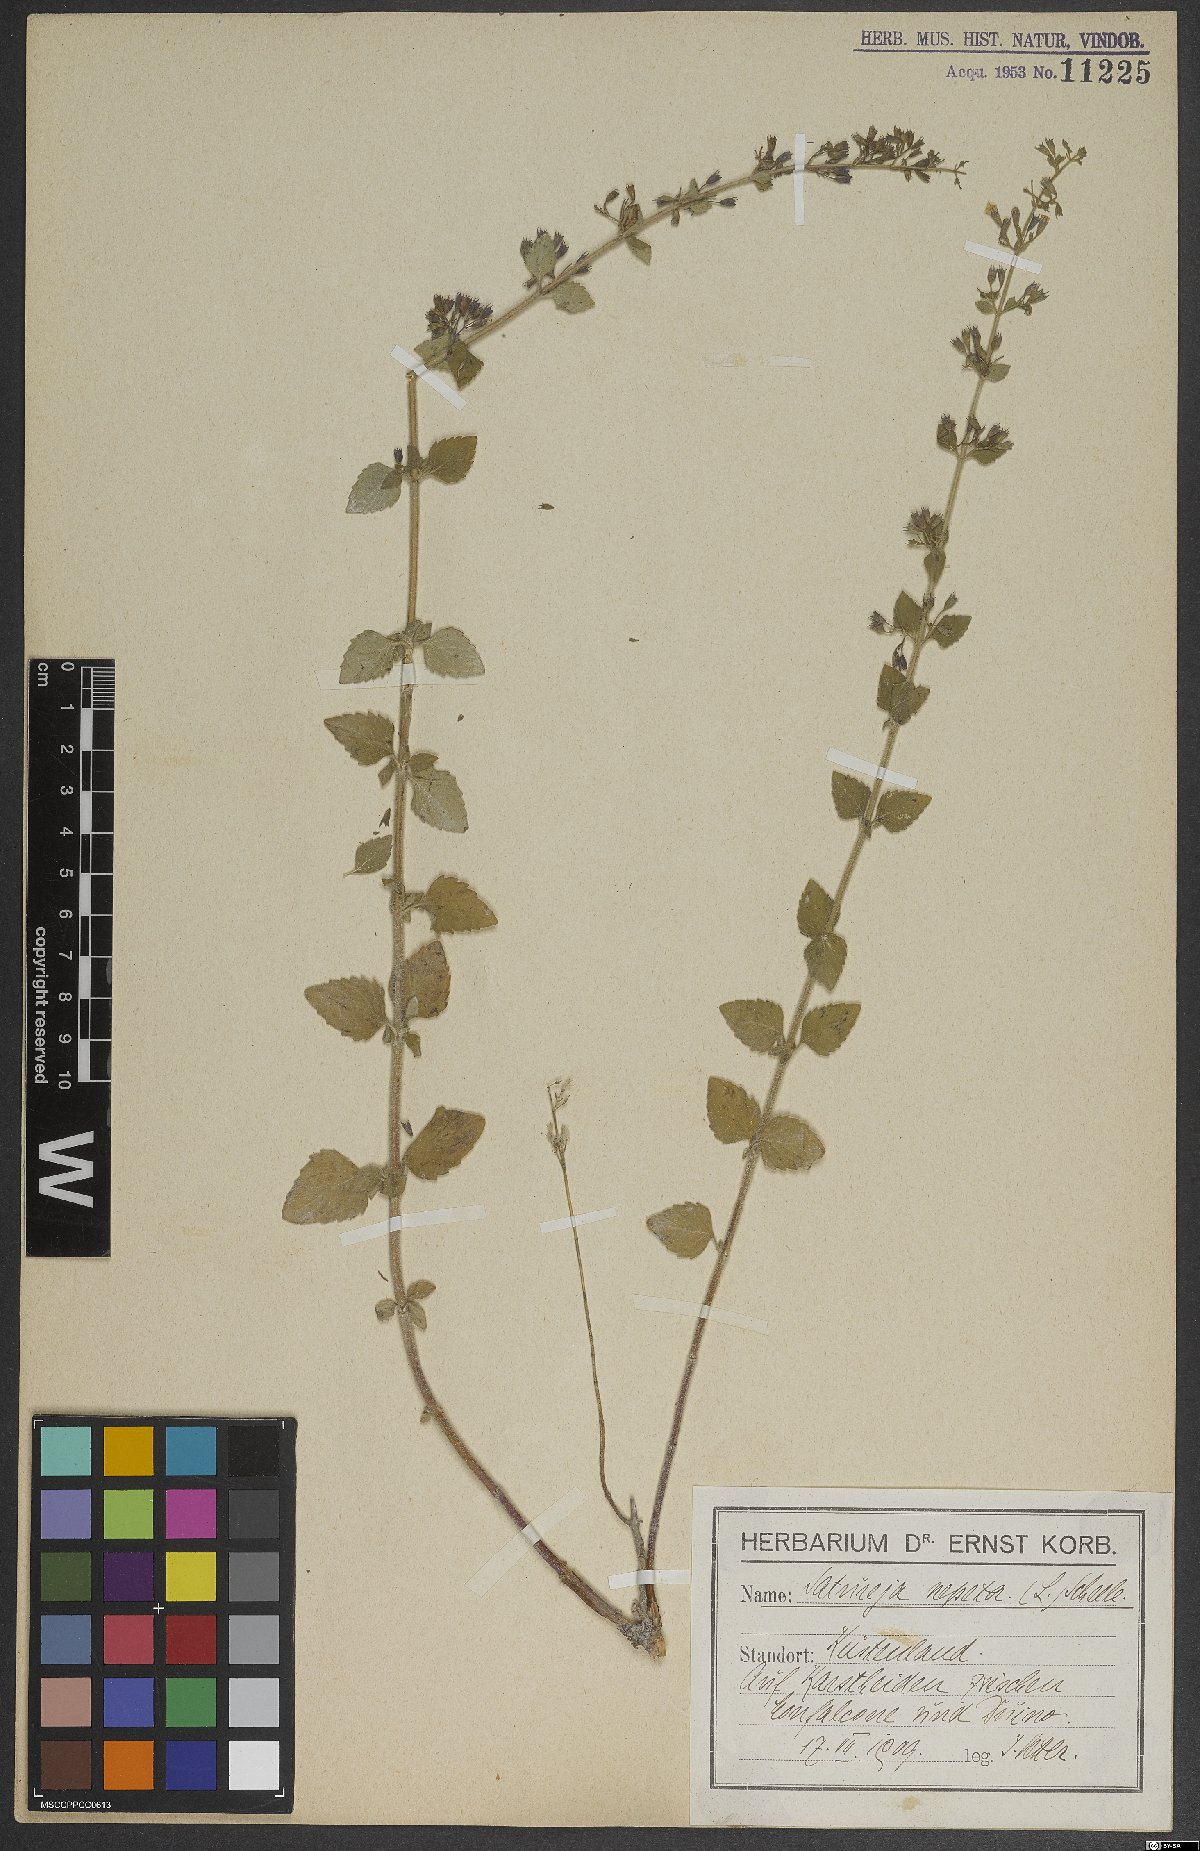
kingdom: Plantae
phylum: Tracheophyta
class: Magnoliopsida
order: Lamiales
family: Lamiaceae
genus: Clinopodium
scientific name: Clinopodium nepeta
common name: Lesser calamint
